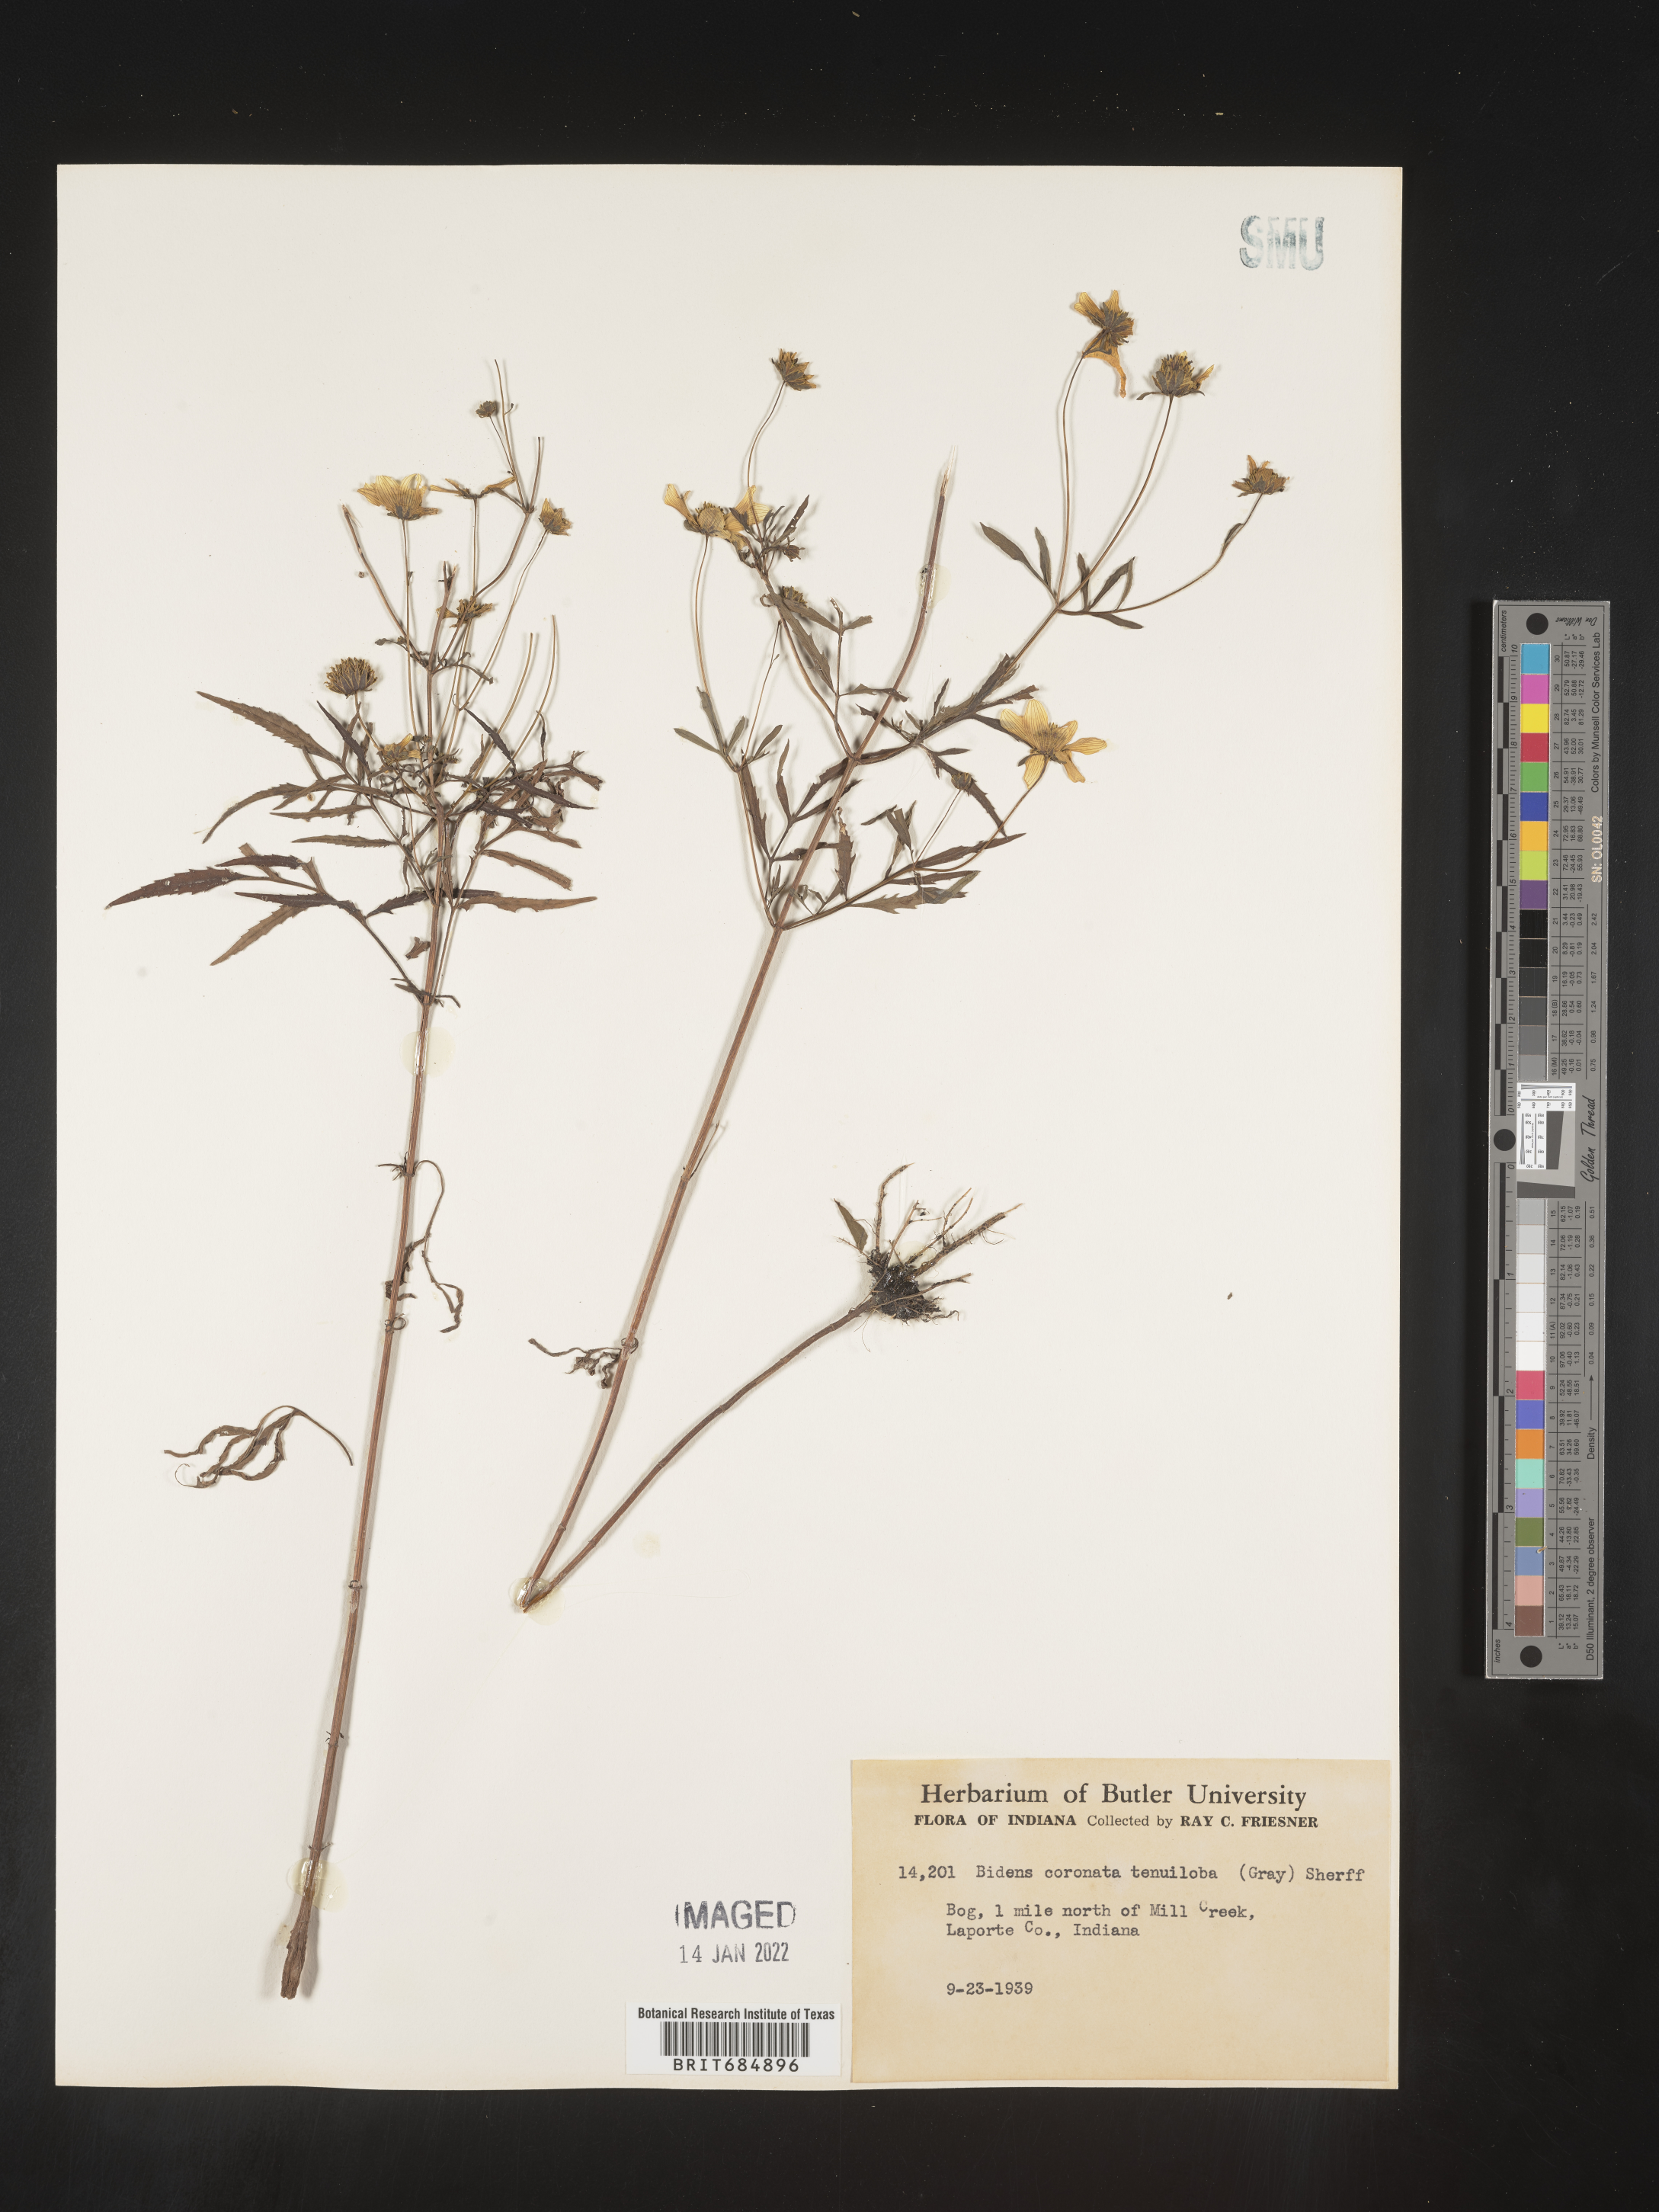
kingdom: Plantae
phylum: Tracheophyta
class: Magnoliopsida
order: Asterales
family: Asteraceae
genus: Bidens
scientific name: Bidens trichosperma
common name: Crowned beggarticks
